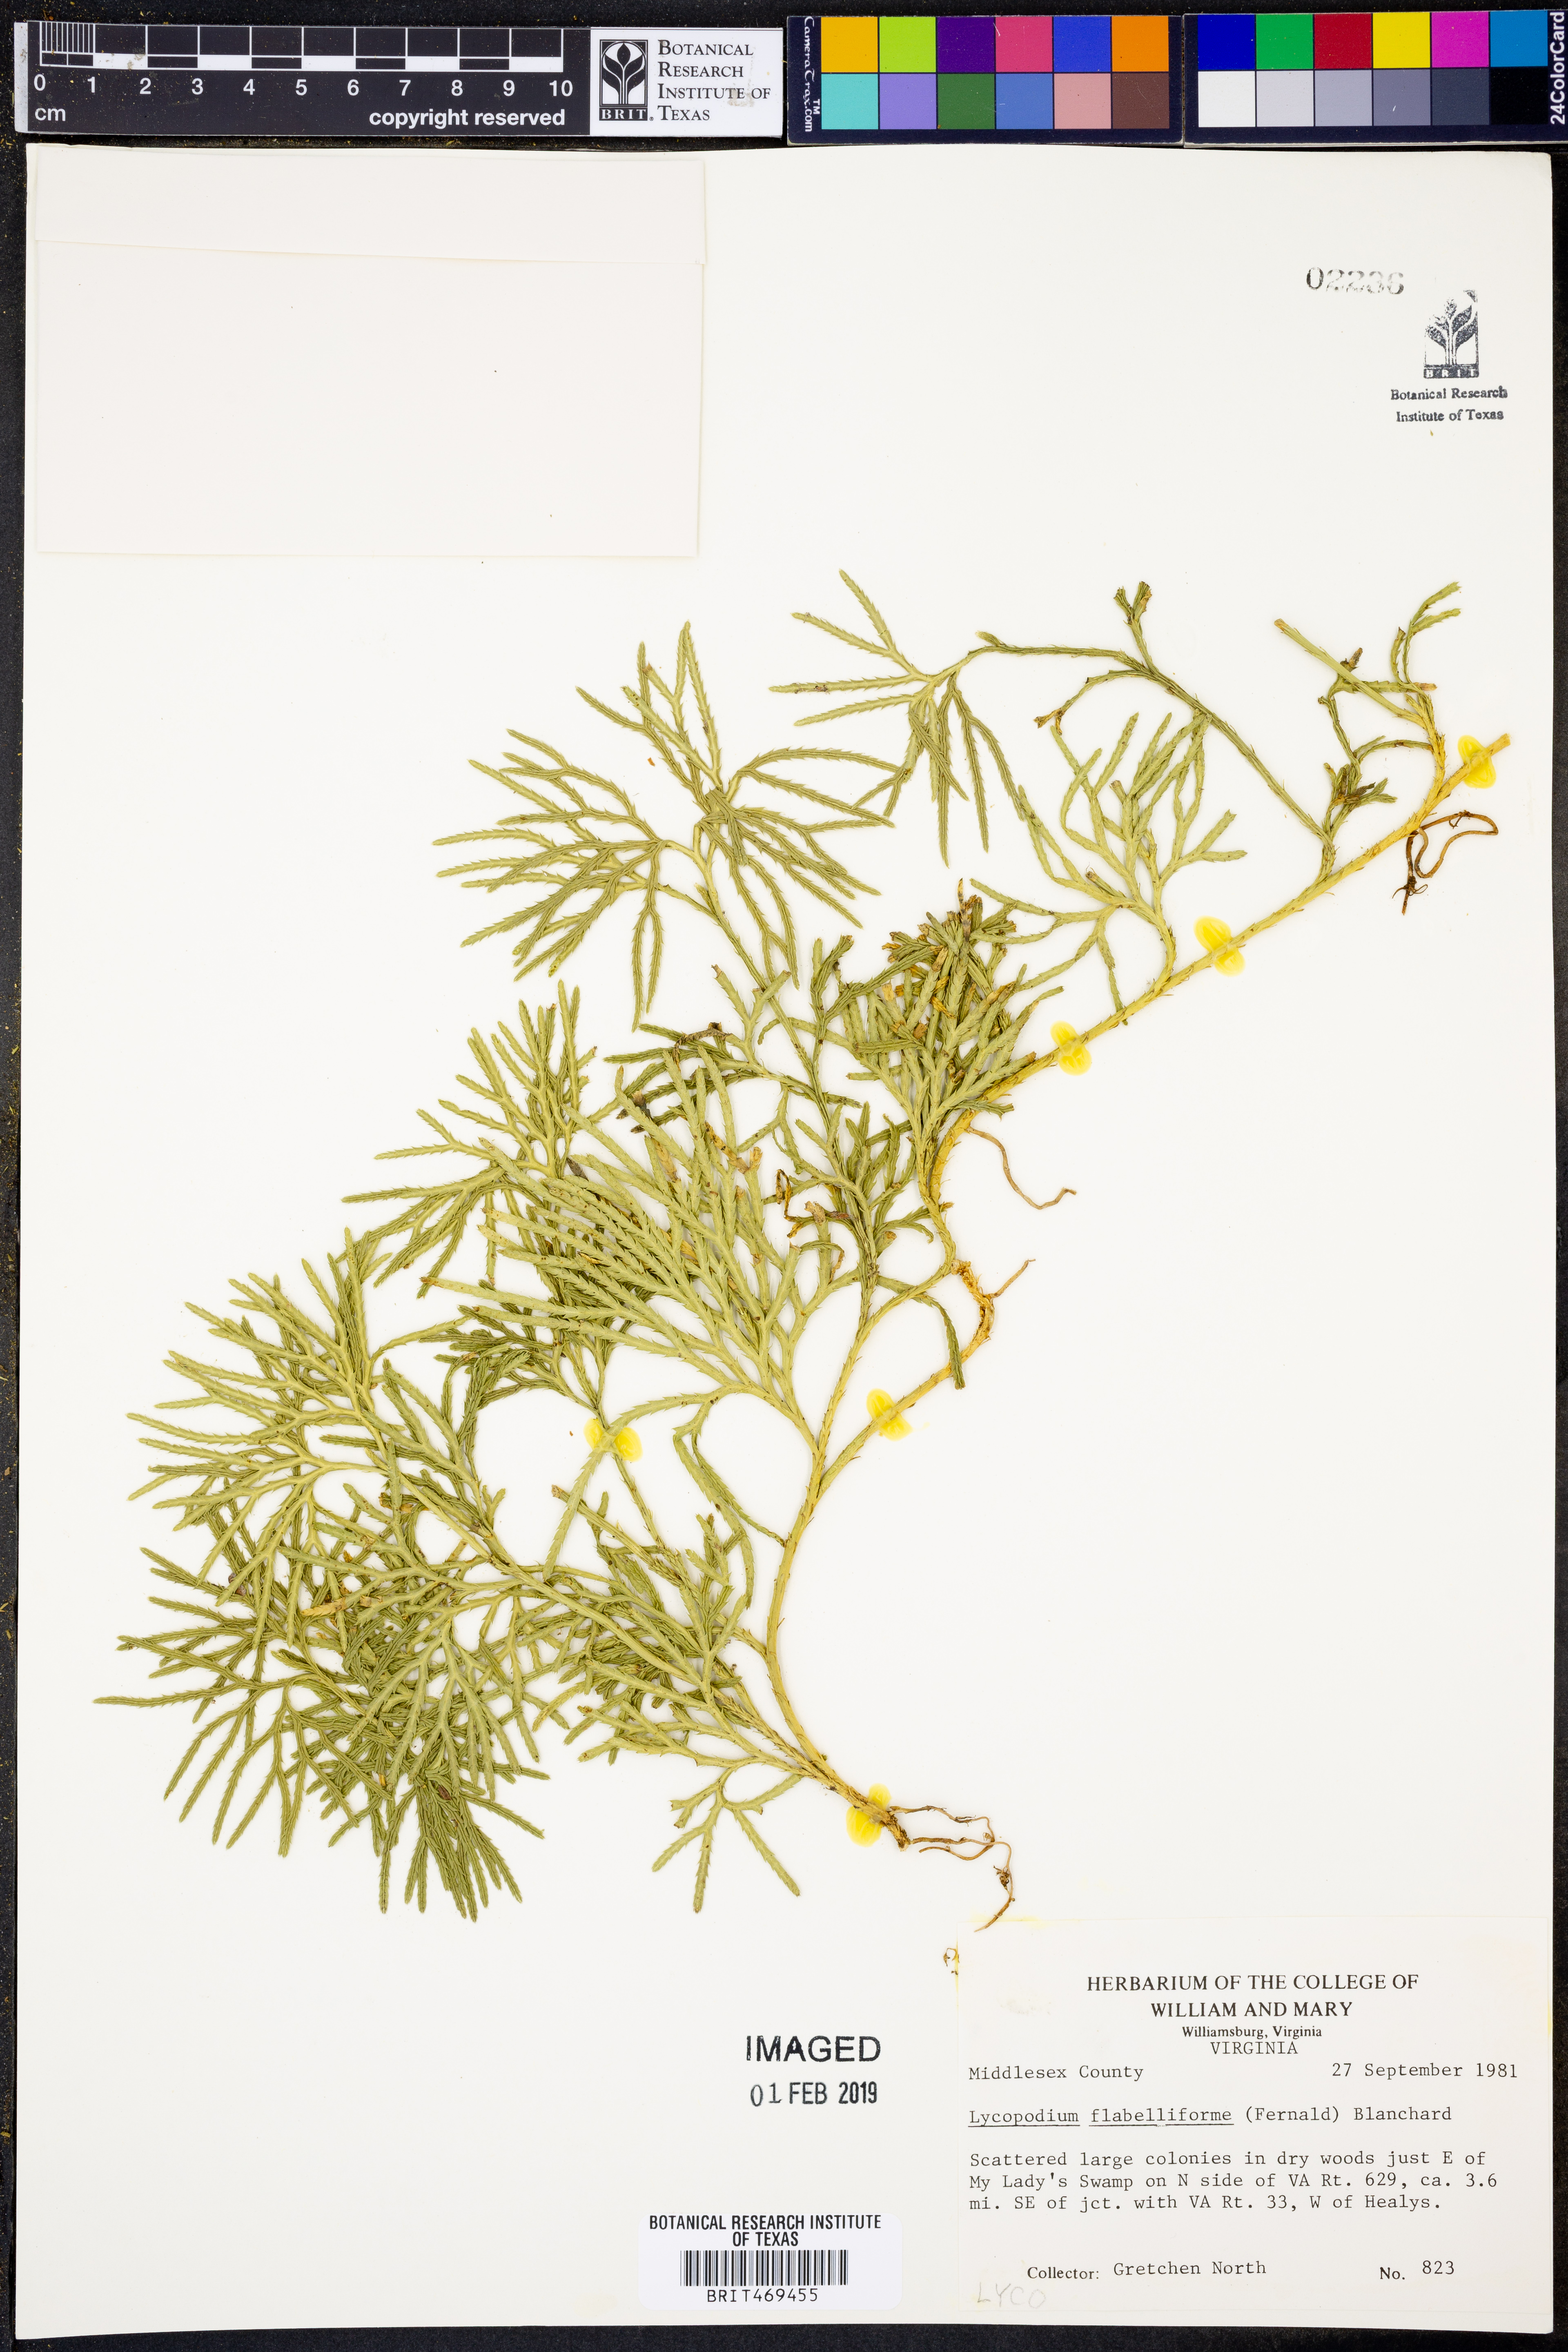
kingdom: Plantae
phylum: Tracheophyta
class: Lycopodiopsida
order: Lycopodiales
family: Lycopodiaceae
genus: Diphasiastrum
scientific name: Diphasiastrum digitatum
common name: Southern running-pine
